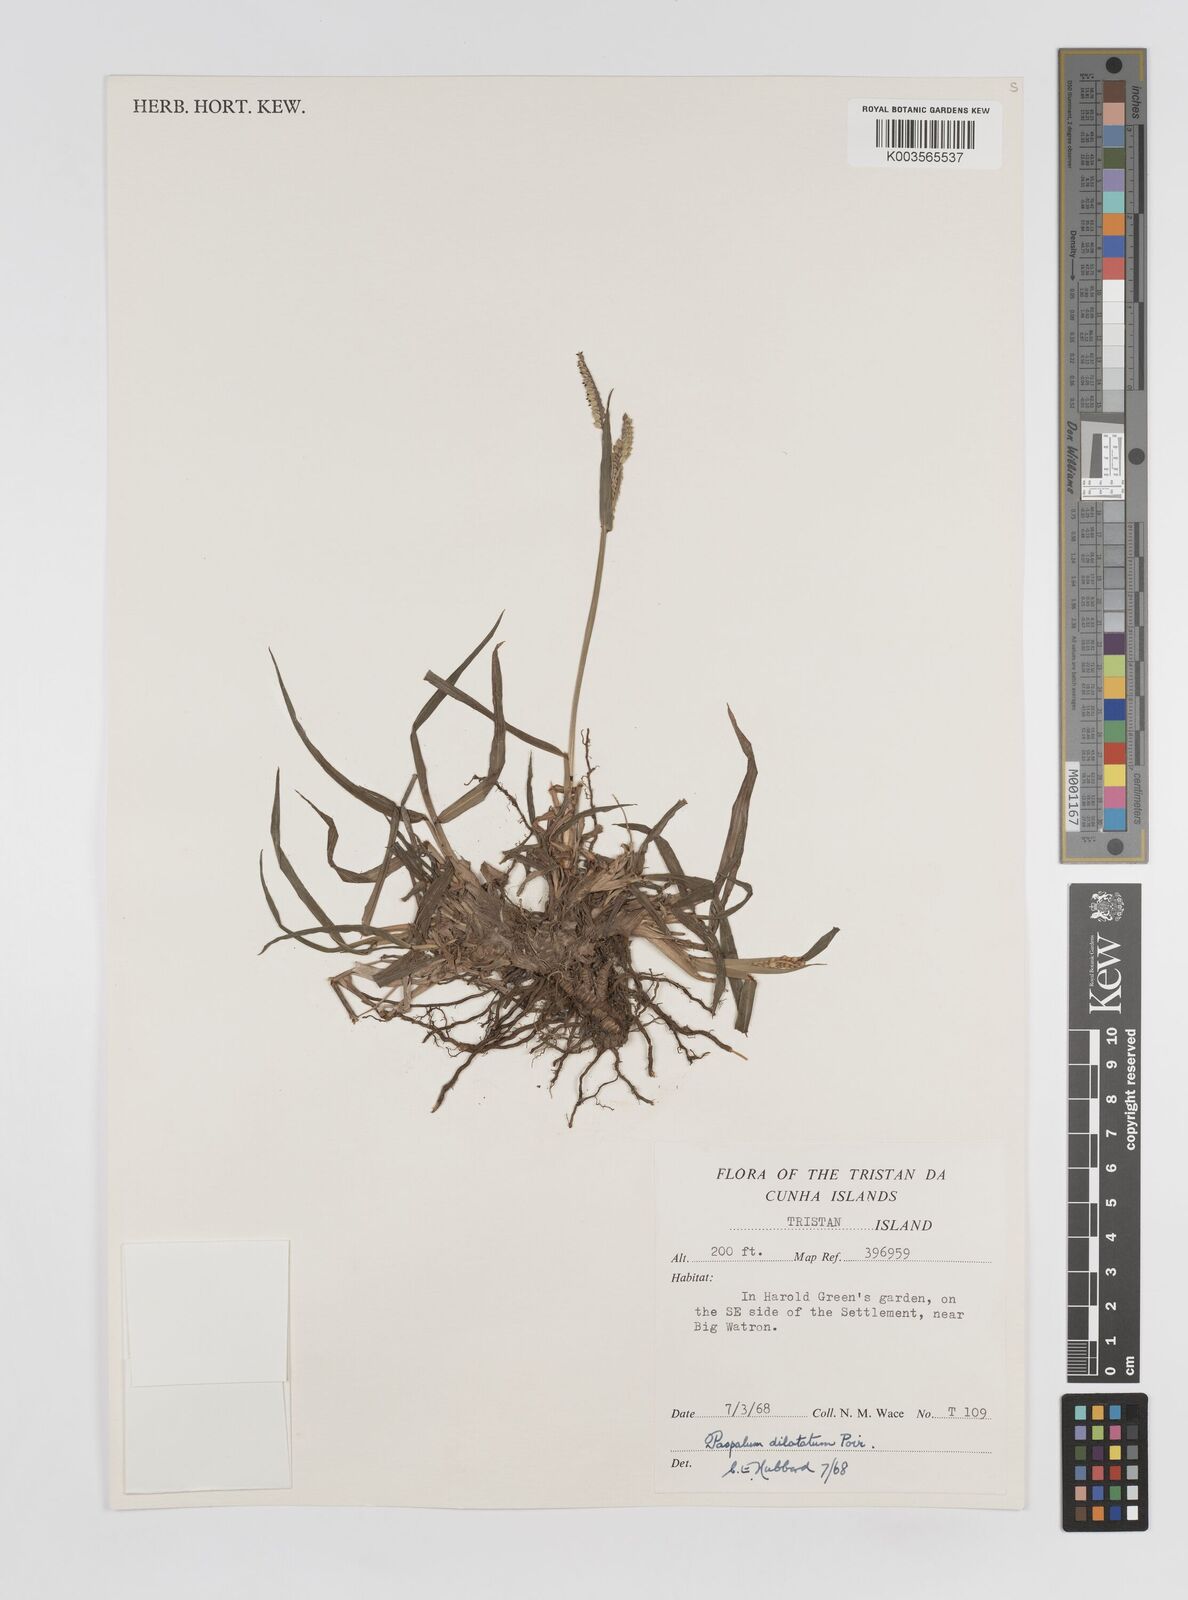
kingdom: Plantae
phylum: Tracheophyta
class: Liliopsida
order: Poales
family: Poaceae
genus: Paspalum
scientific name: Paspalum dilatatum
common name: Dallisgrass
